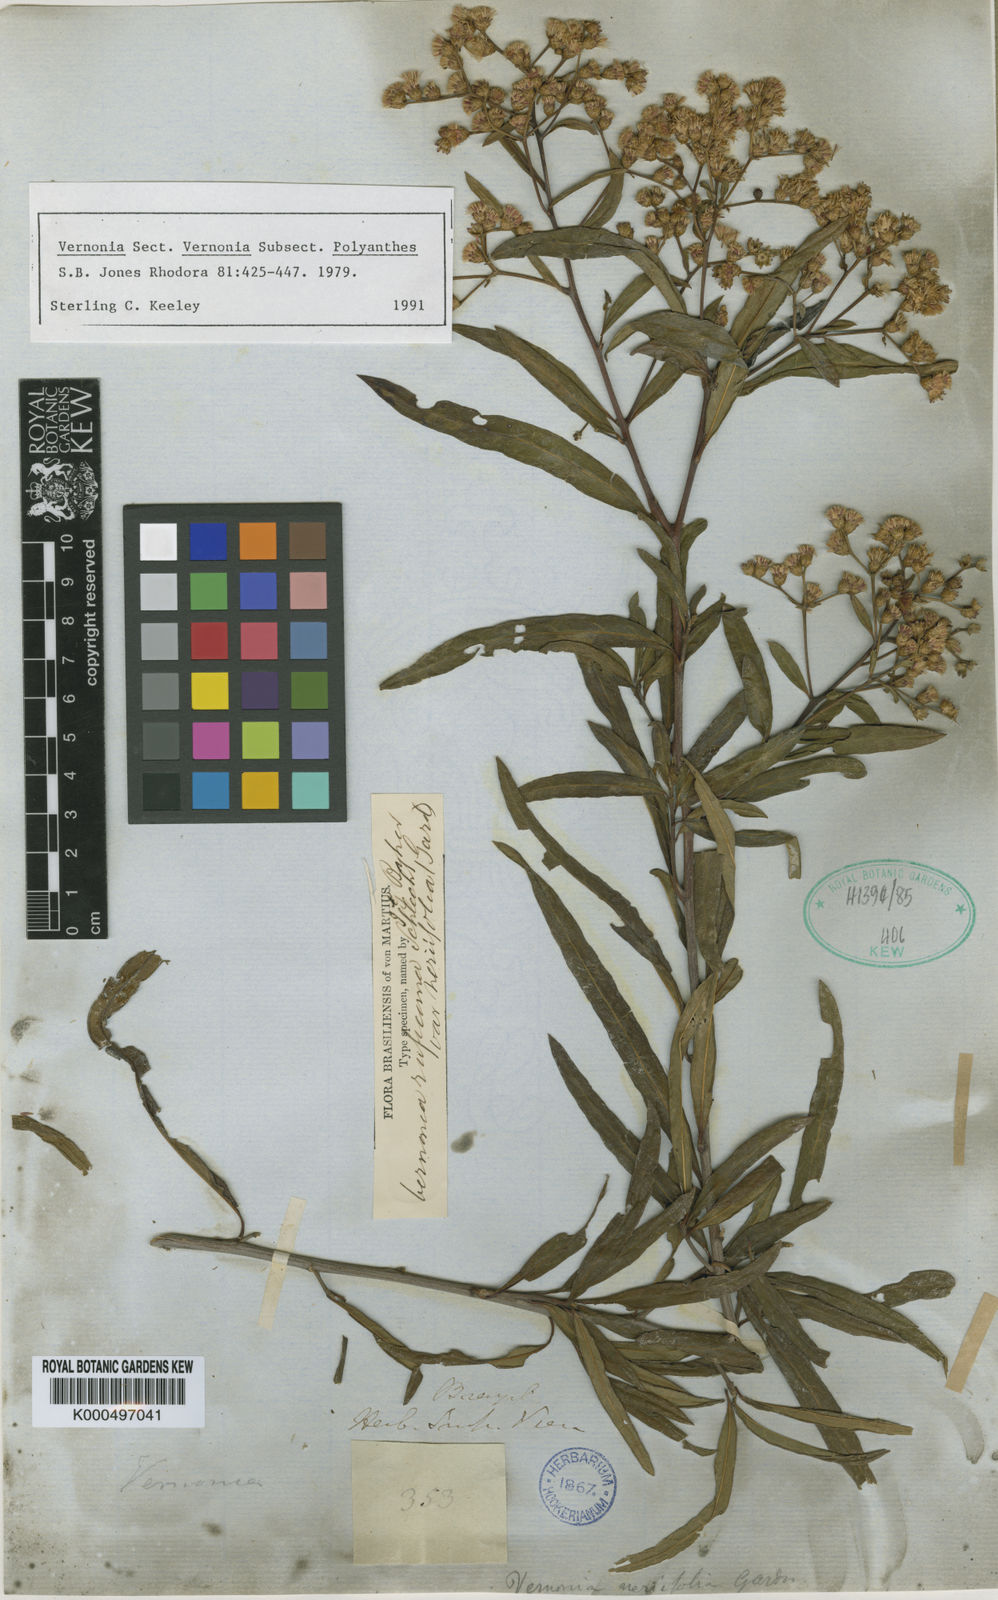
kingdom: Plantae
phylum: Tracheophyta
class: Magnoliopsida
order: Asterales
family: Asteraceae
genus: Vernonia
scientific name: Vernonia
